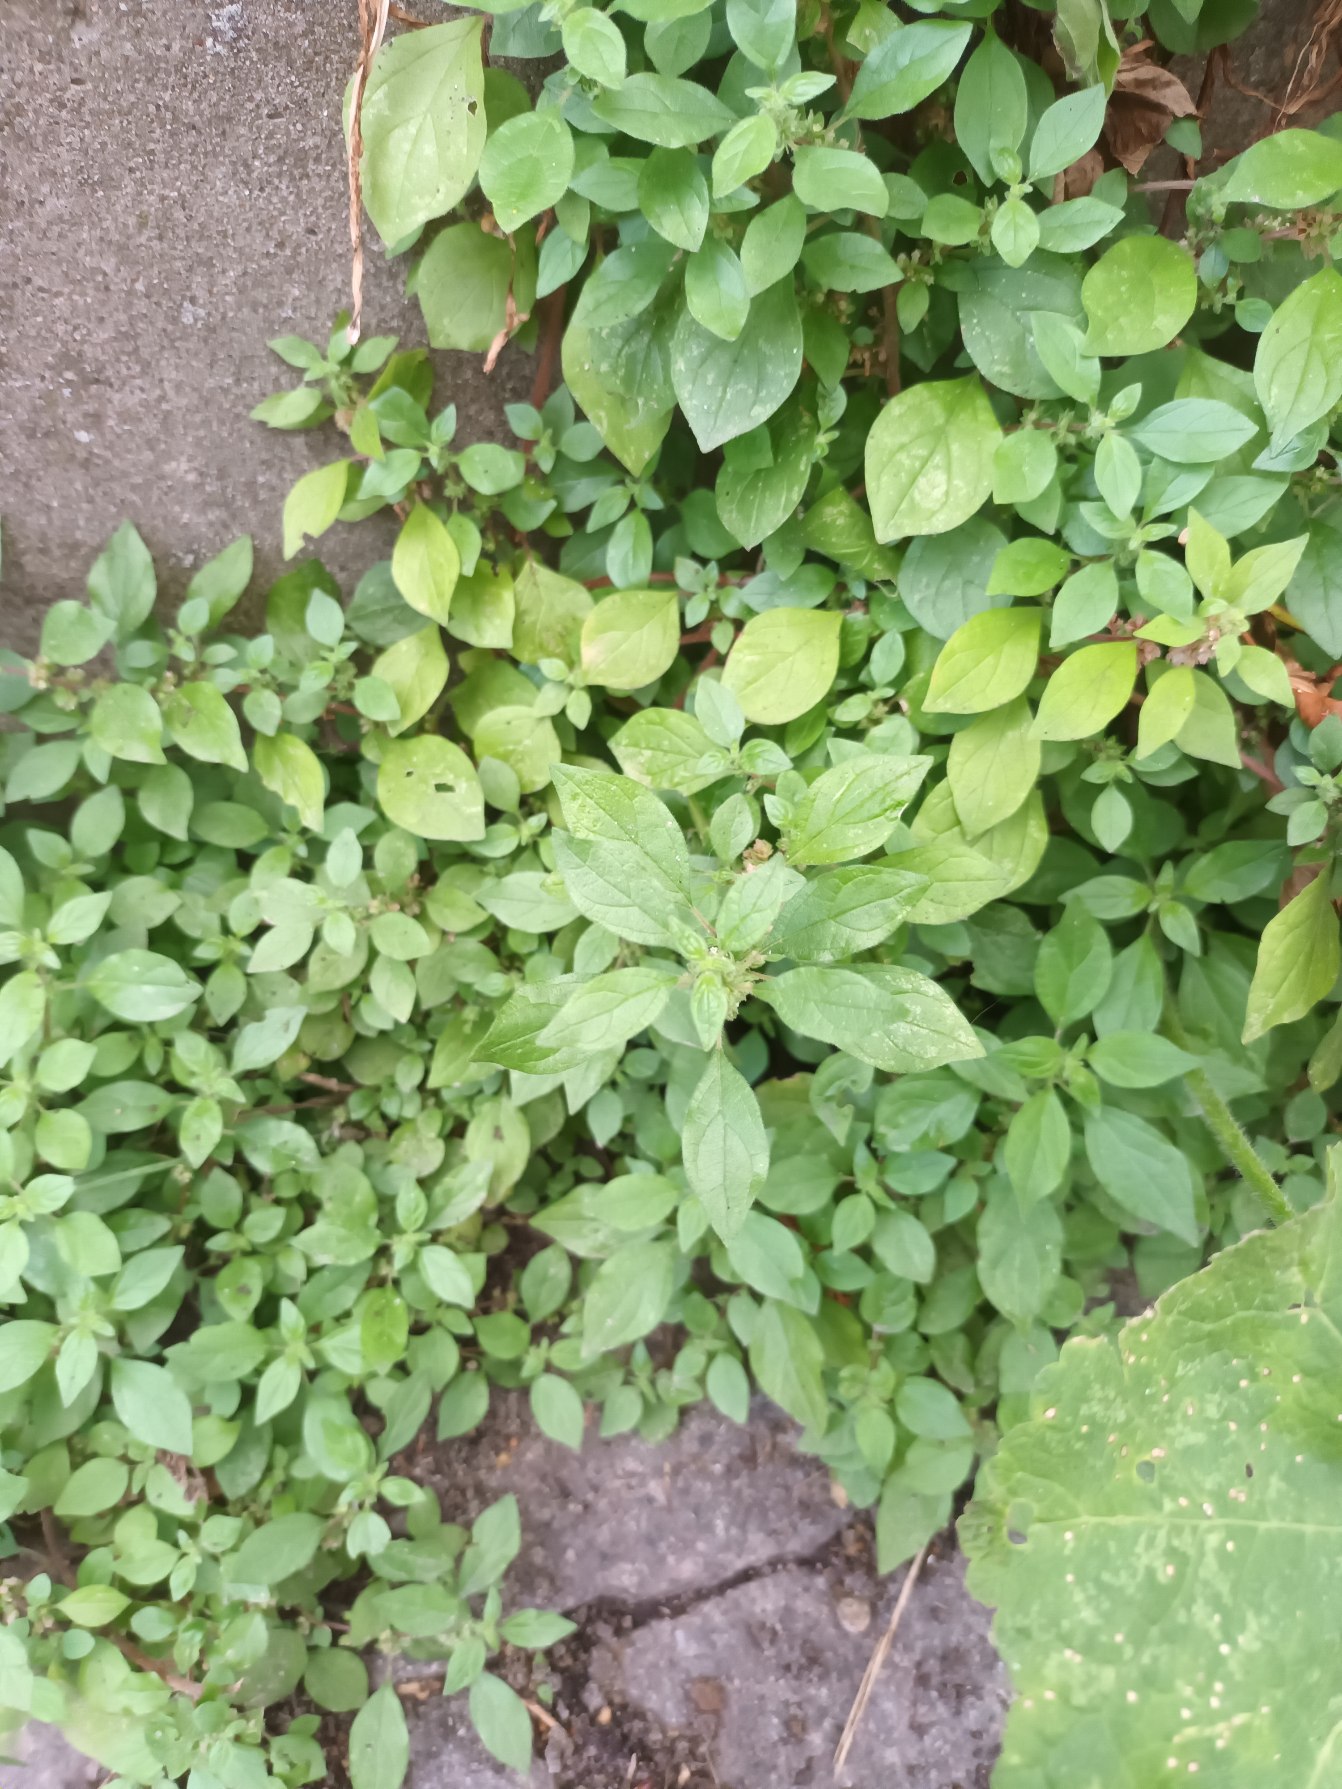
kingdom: Plantae
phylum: Tracheophyta
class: Magnoliopsida
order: Rosales
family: Urticaceae
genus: Parietaria
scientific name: Parietaria judaica
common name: Nedliggende springknap
